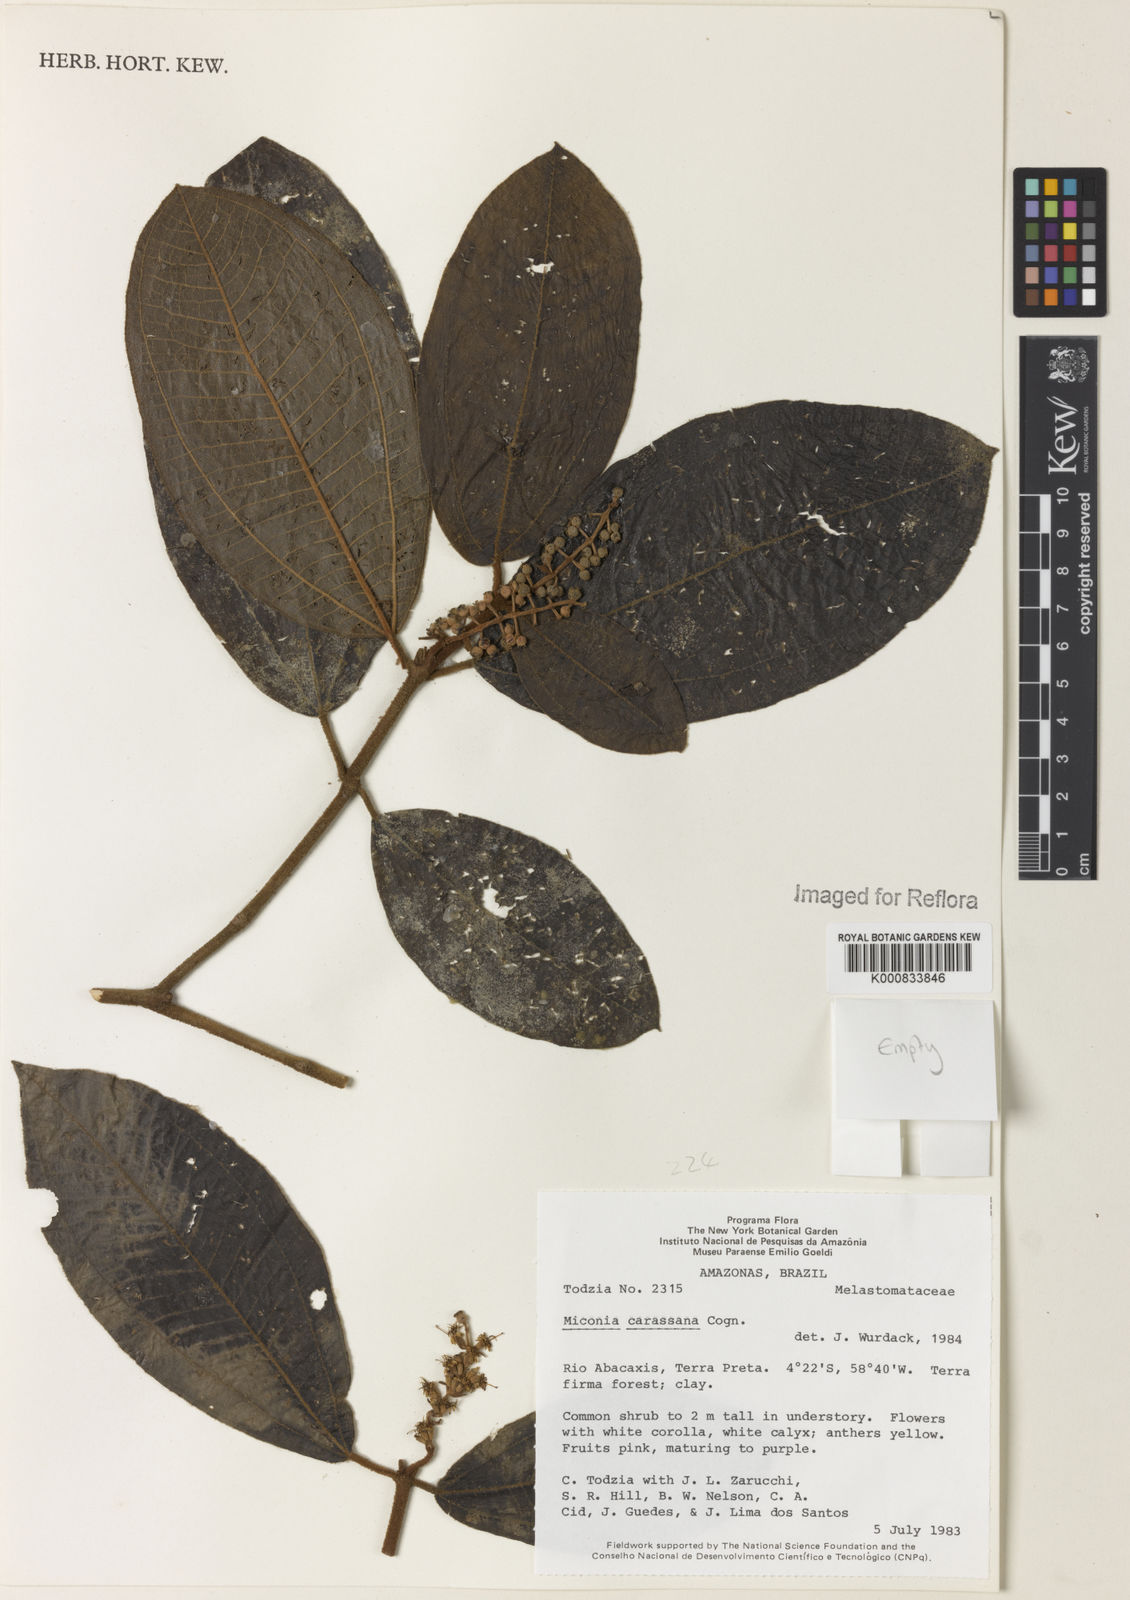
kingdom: Plantae
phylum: Tracheophyta
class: Magnoliopsida
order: Myrtales
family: Melastomataceae
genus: Miconia
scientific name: Miconia carassana
